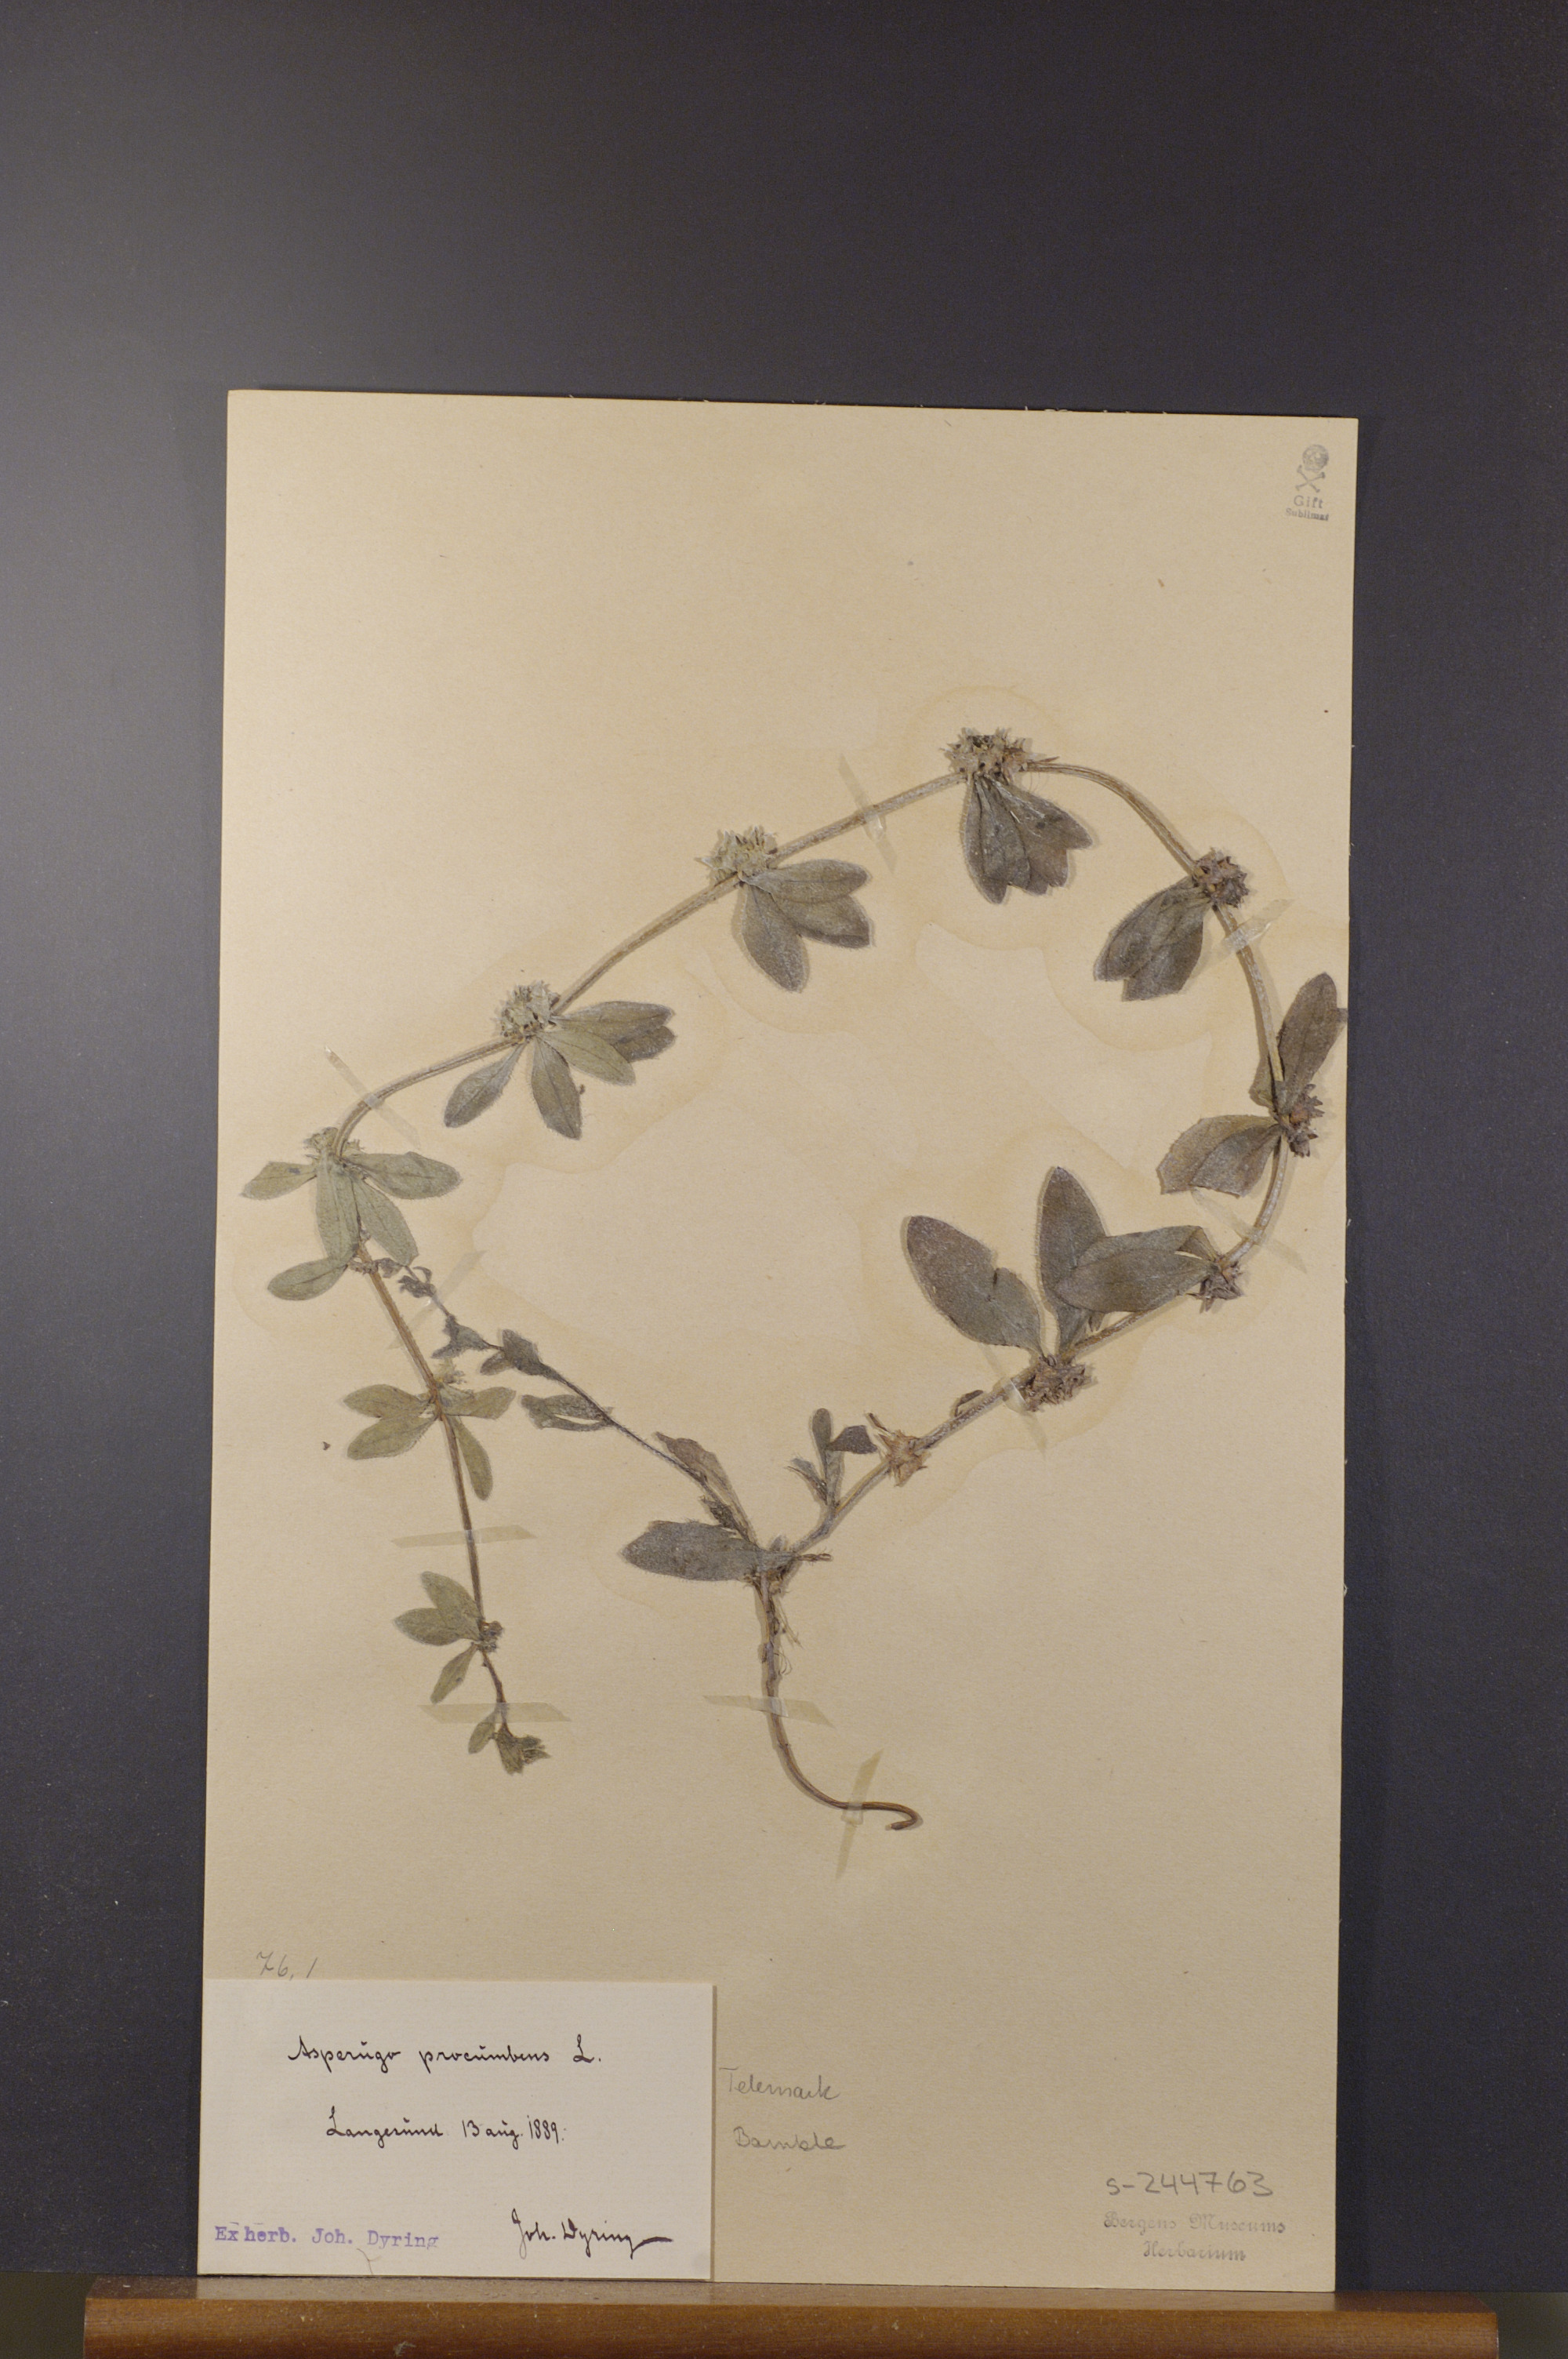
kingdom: Plantae
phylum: Tracheophyta
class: Magnoliopsida
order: Boraginales
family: Boraginaceae
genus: Asperugo
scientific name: Asperugo procumbens
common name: Madwort
